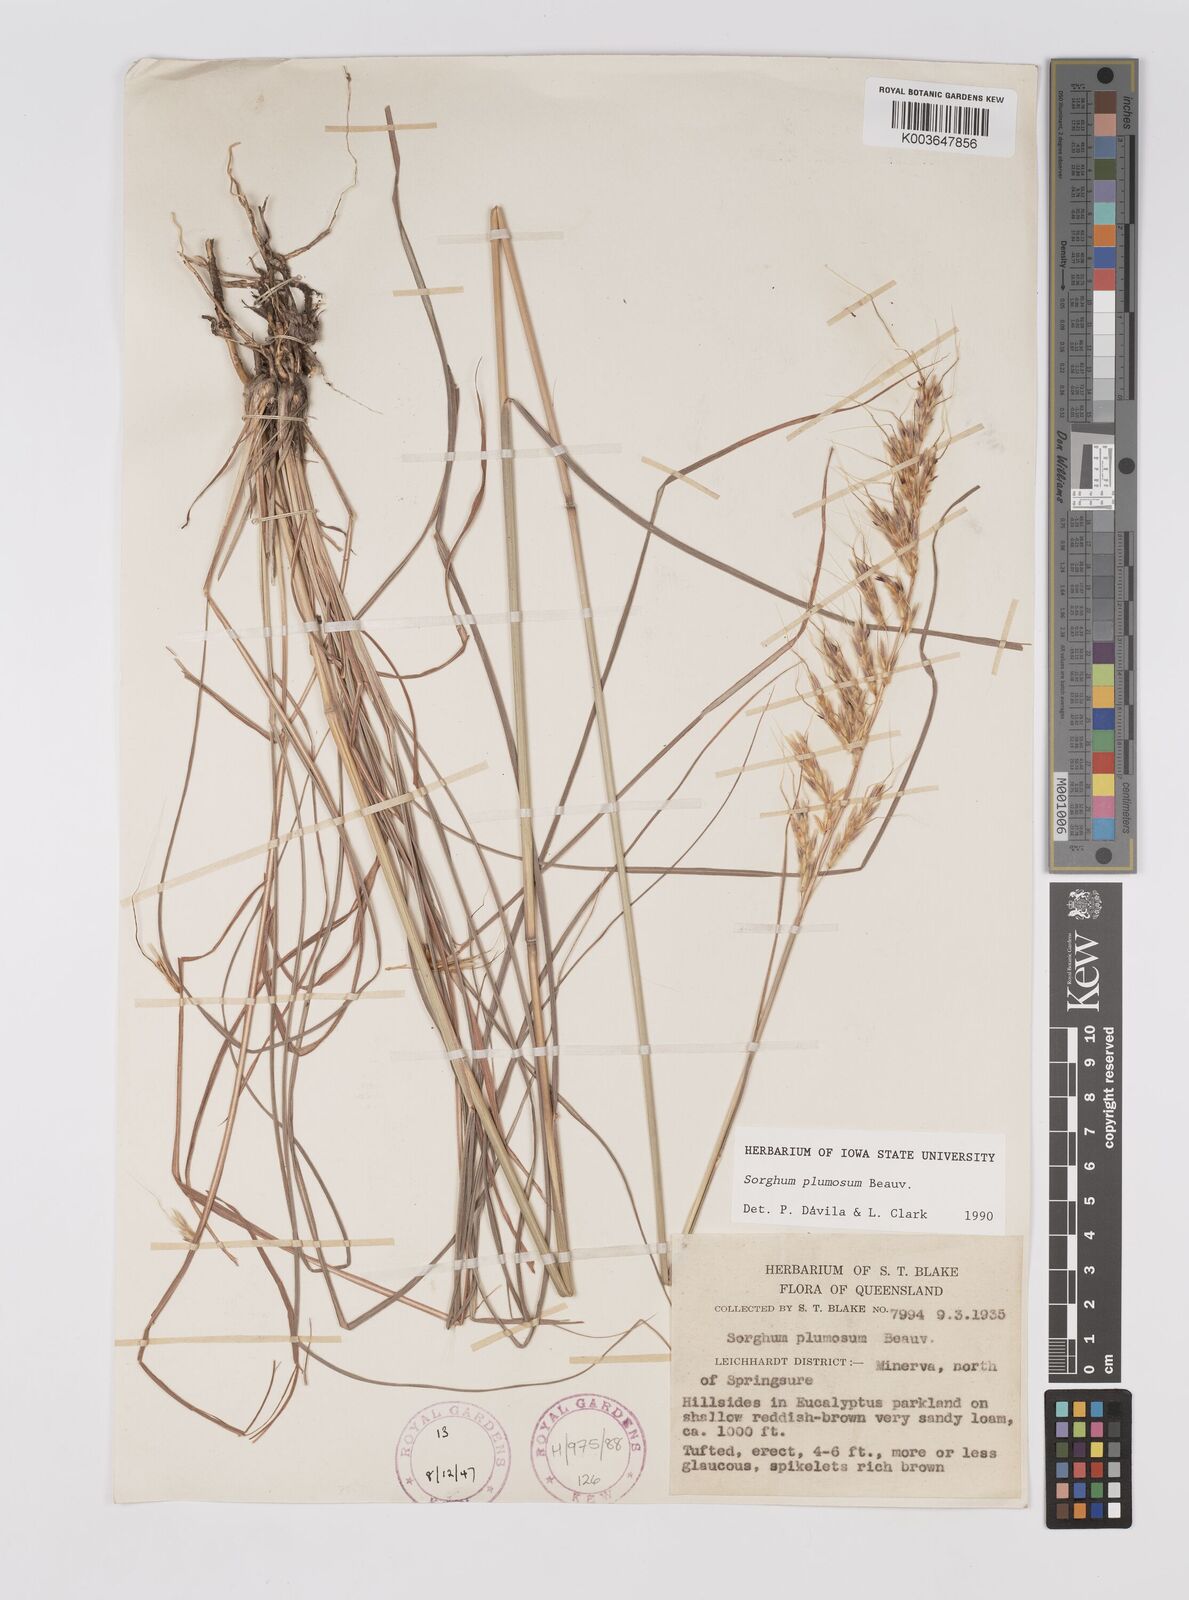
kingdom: Plantae
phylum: Tracheophyta
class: Liliopsida
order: Poales
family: Poaceae
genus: Sarga
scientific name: Sarga plumosa
